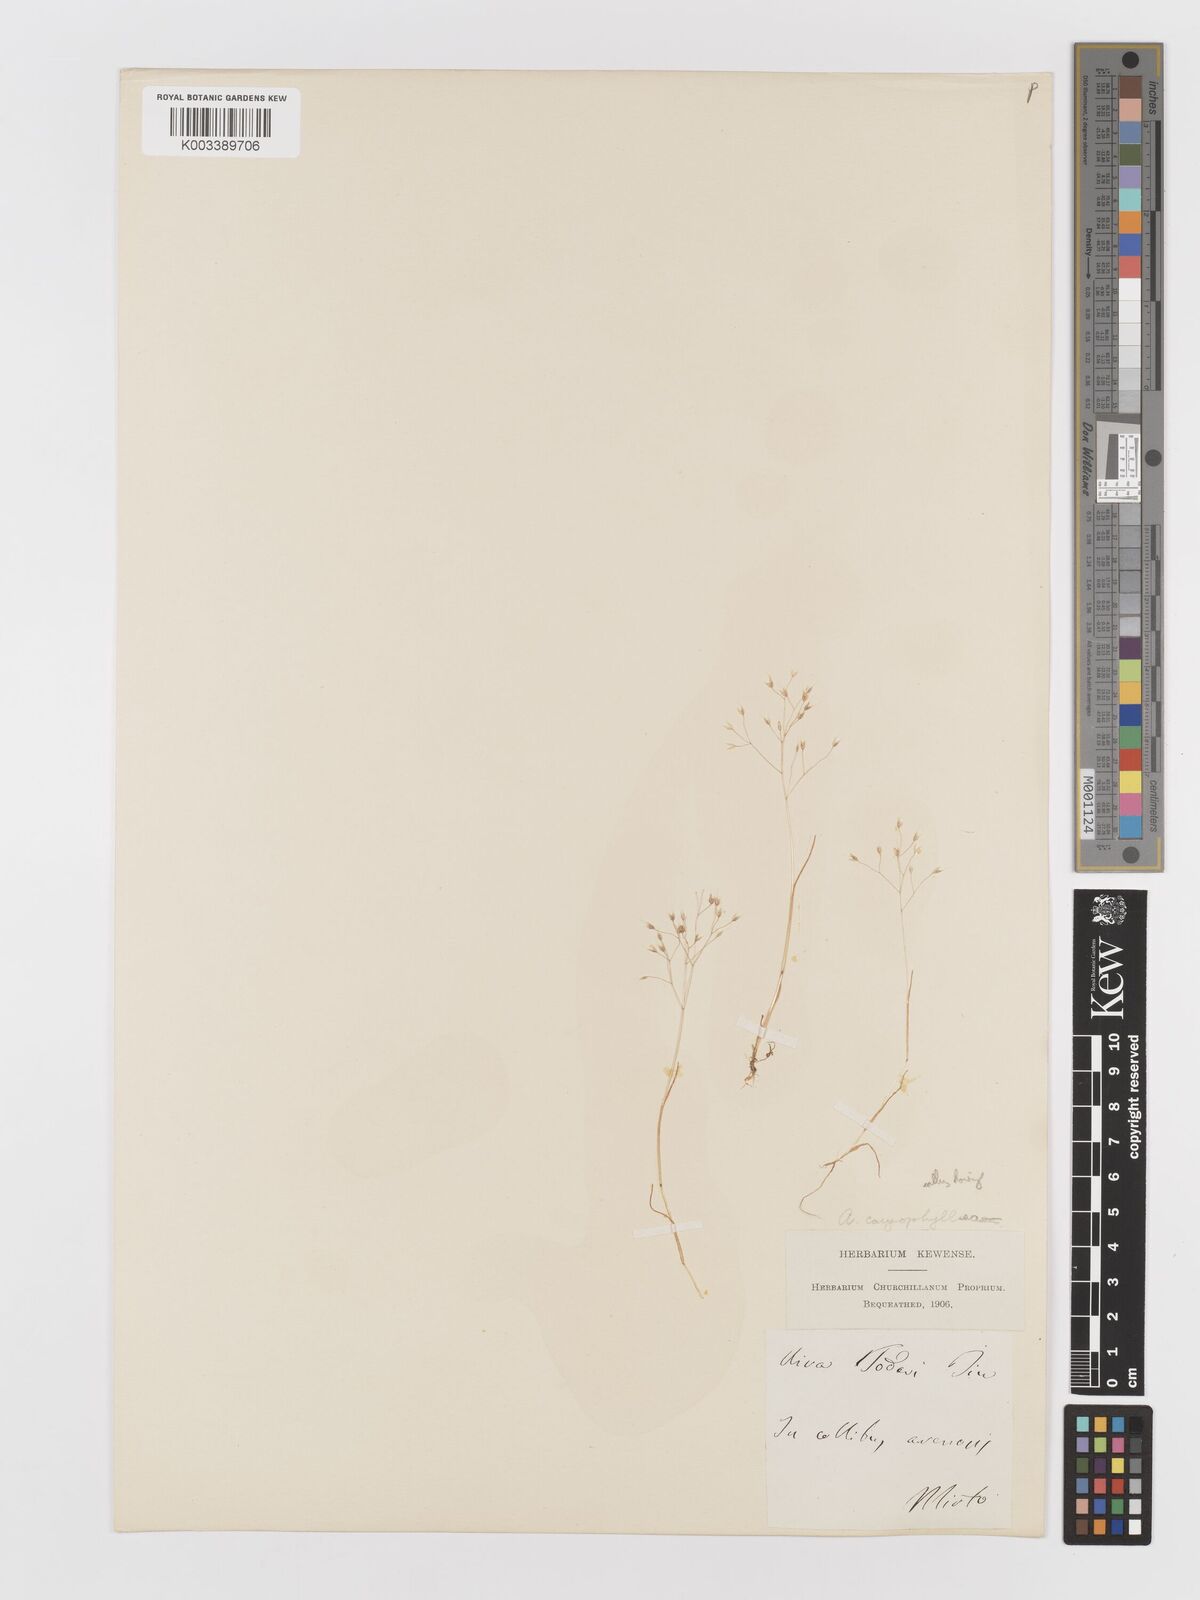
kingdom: Plantae
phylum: Tracheophyta
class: Liliopsida
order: Poales
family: Poaceae
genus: Aira
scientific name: Aira caryophyllea
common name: Silver hairgrass
